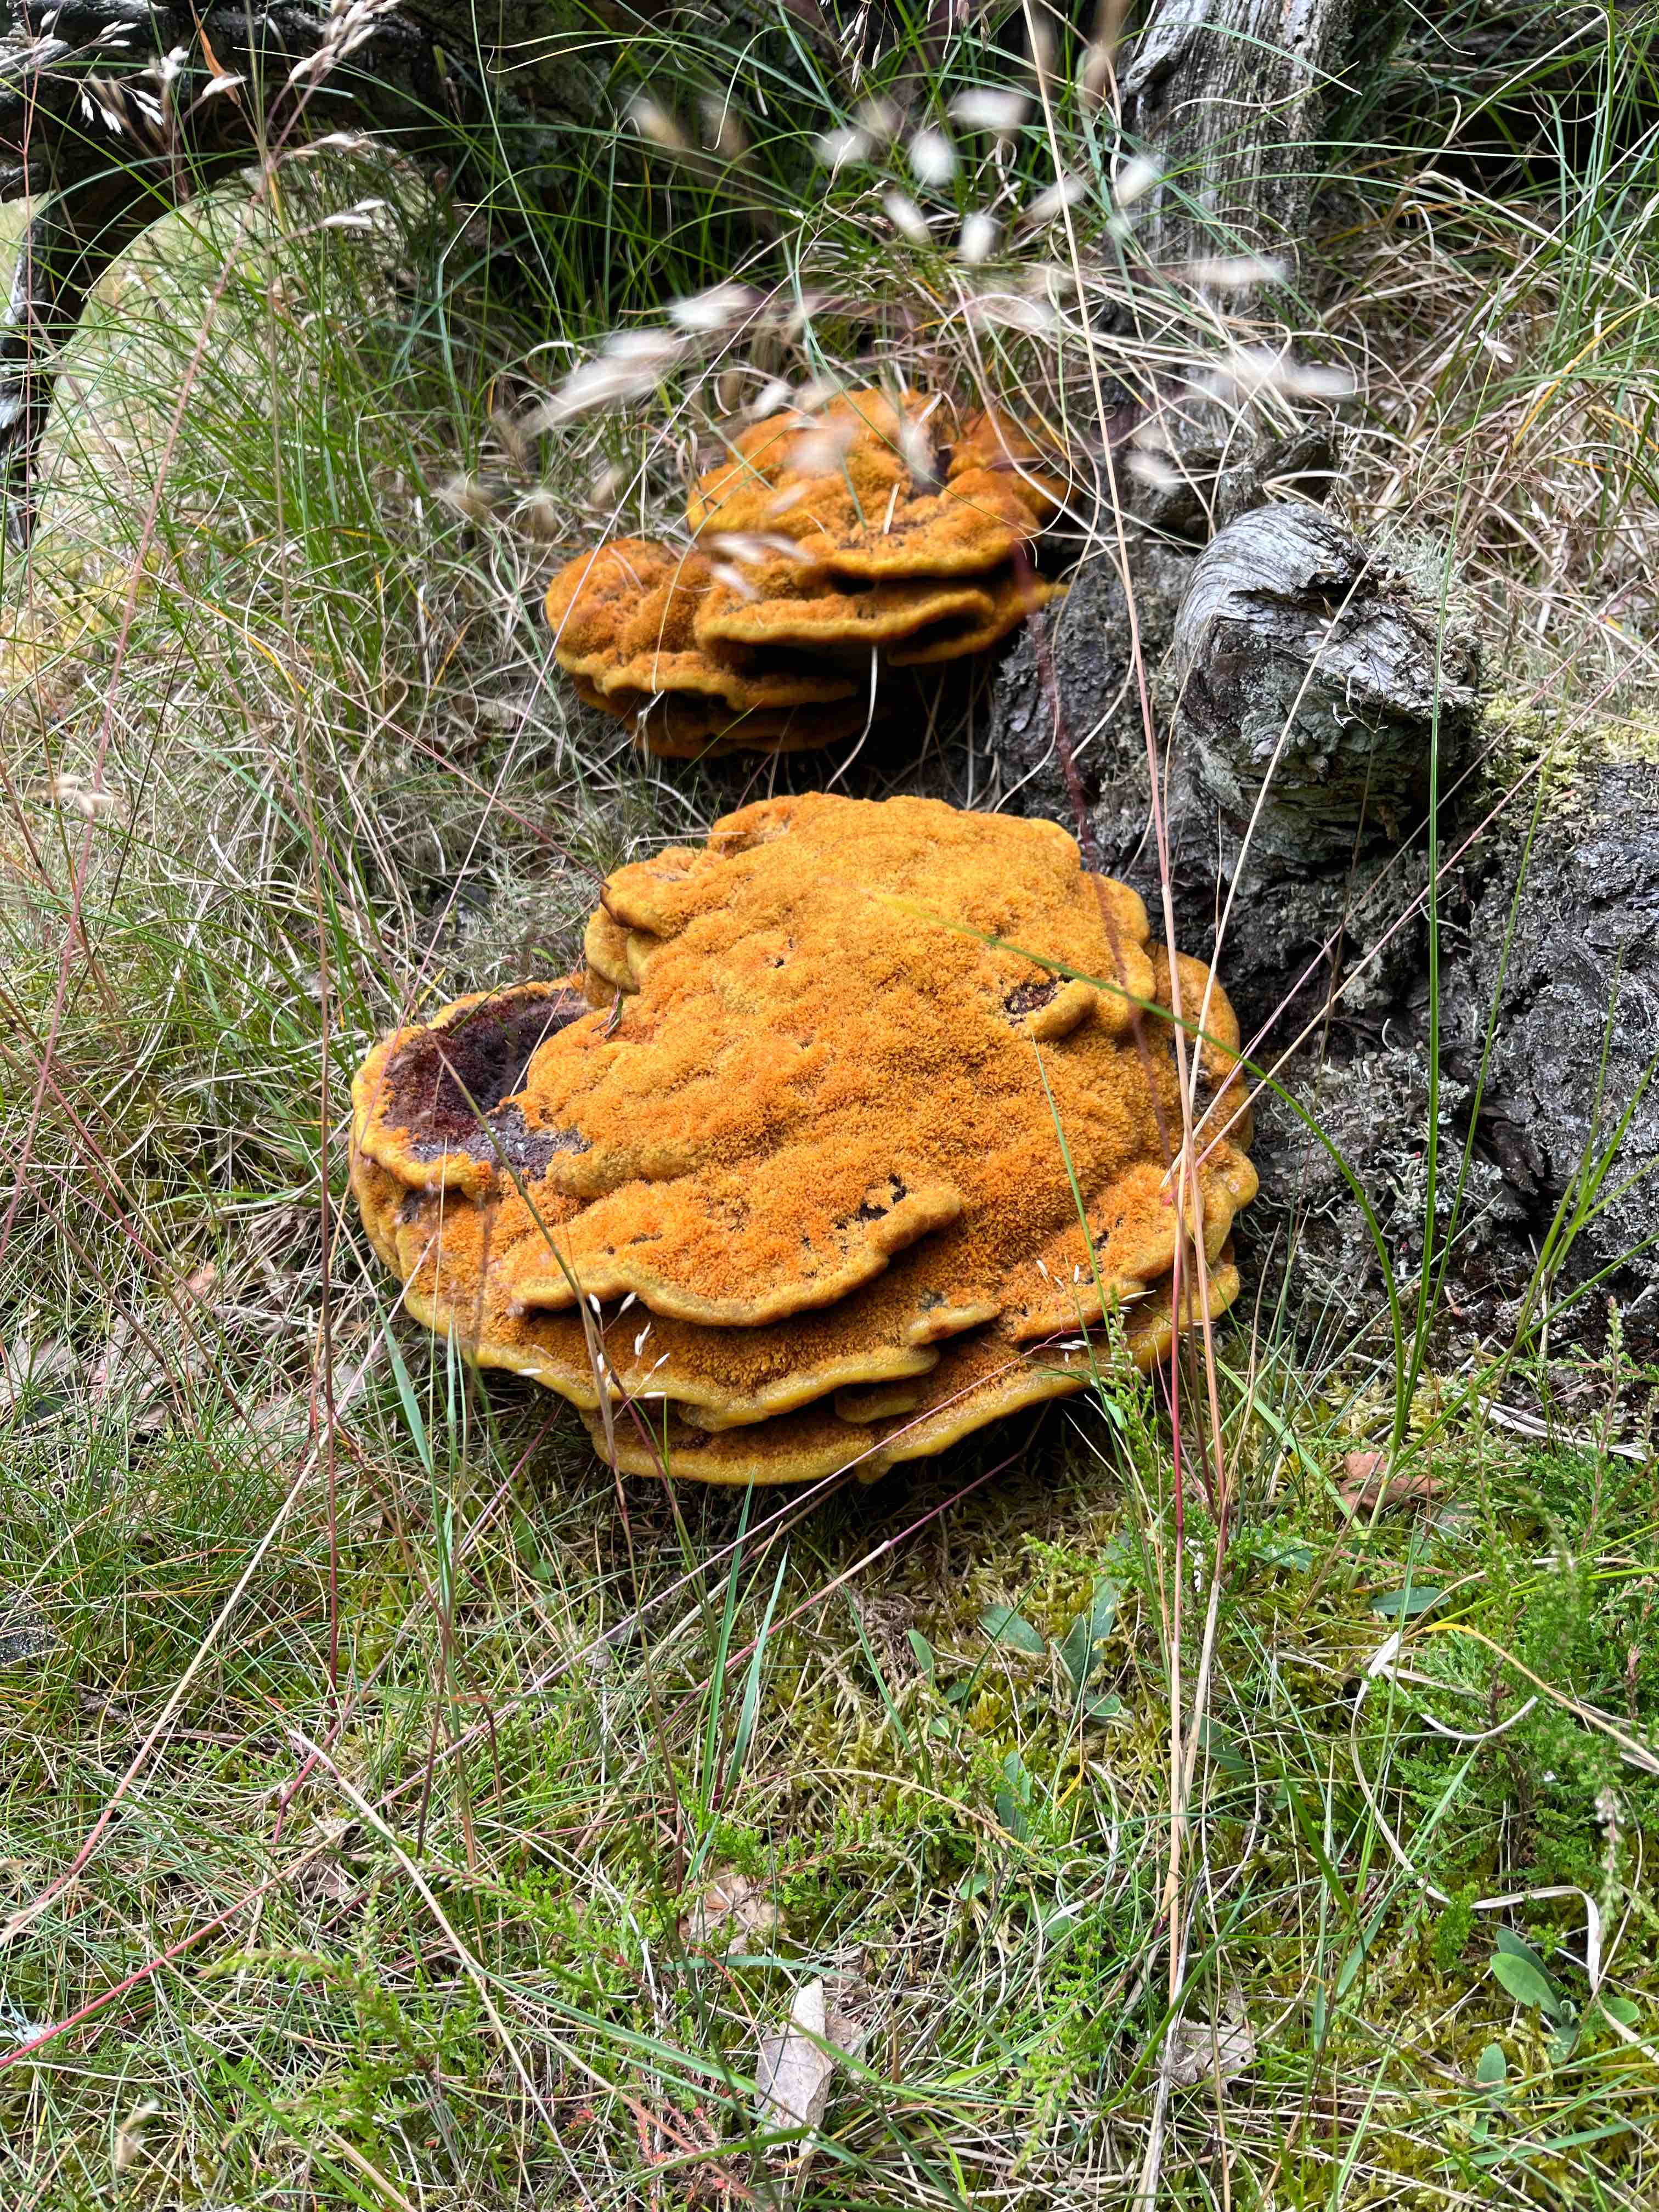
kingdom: Fungi
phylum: Basidiomycota
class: Agaricomycetes
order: Polyporales
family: Laetiporaceae
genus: Phaeolus
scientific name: Phaeolus schweinitzii
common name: brunporesvamp
